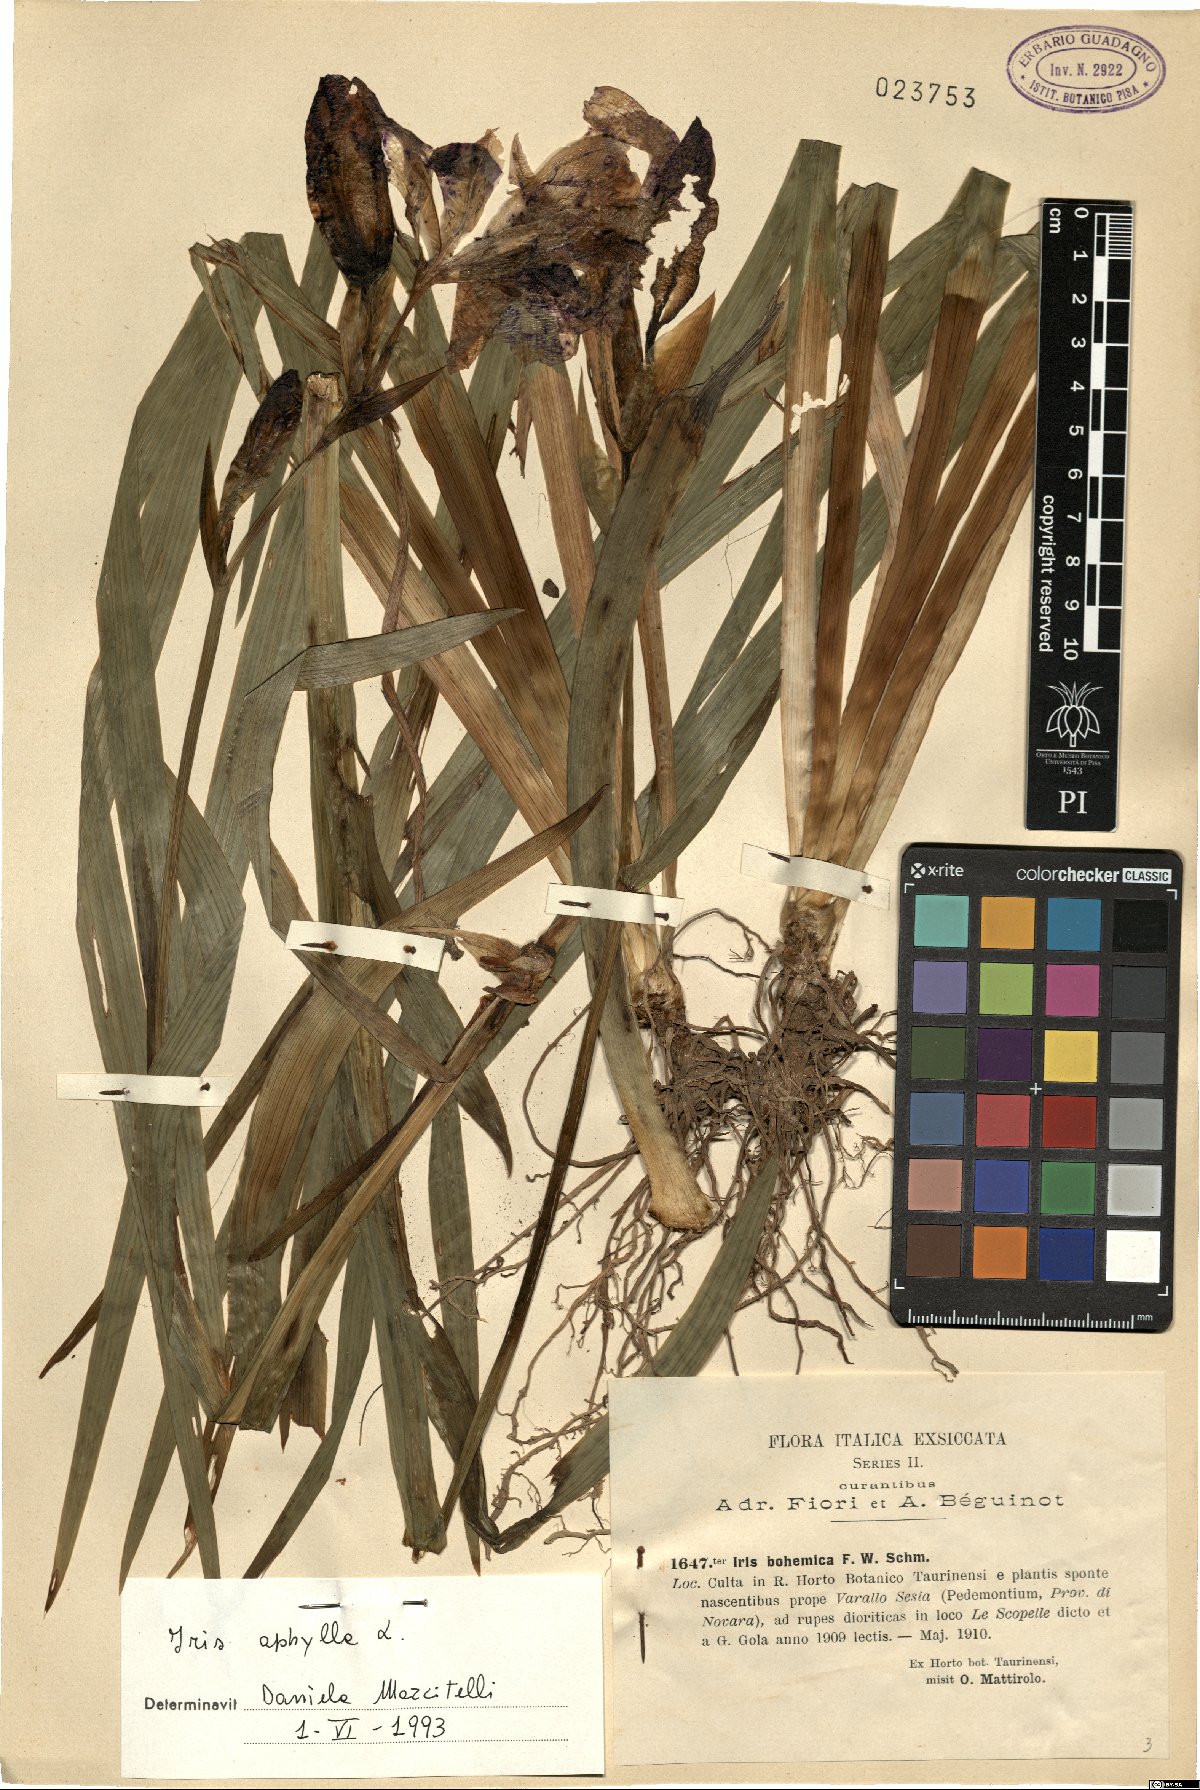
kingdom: Plantae
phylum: Tracheophyta
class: Liliopsida
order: Asparagales
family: Iridaceae
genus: Iris
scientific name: Iris aphylla
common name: Stool iris
